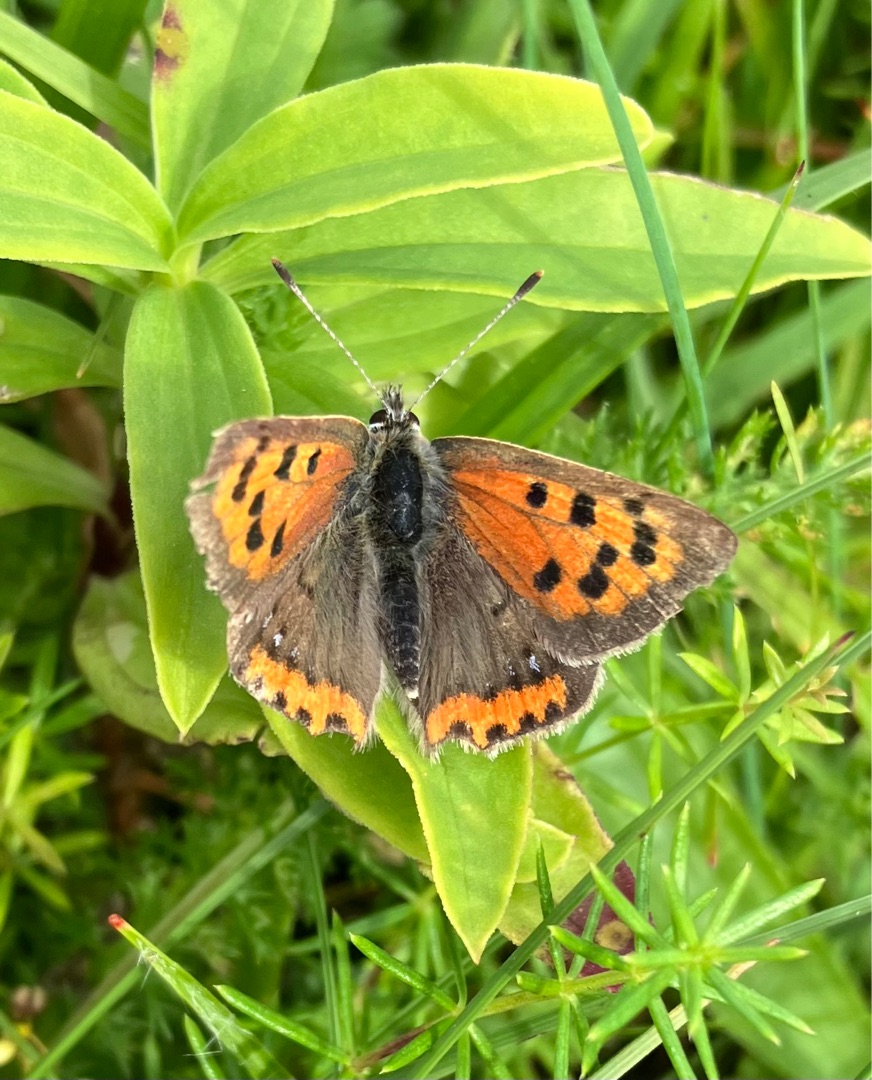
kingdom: Animalia
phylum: Arthropoda
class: Insecta
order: Lepidoptera
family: Lycaenidae
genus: Lycaena
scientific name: Lycaena phlaeas
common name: Lille ildfugl
